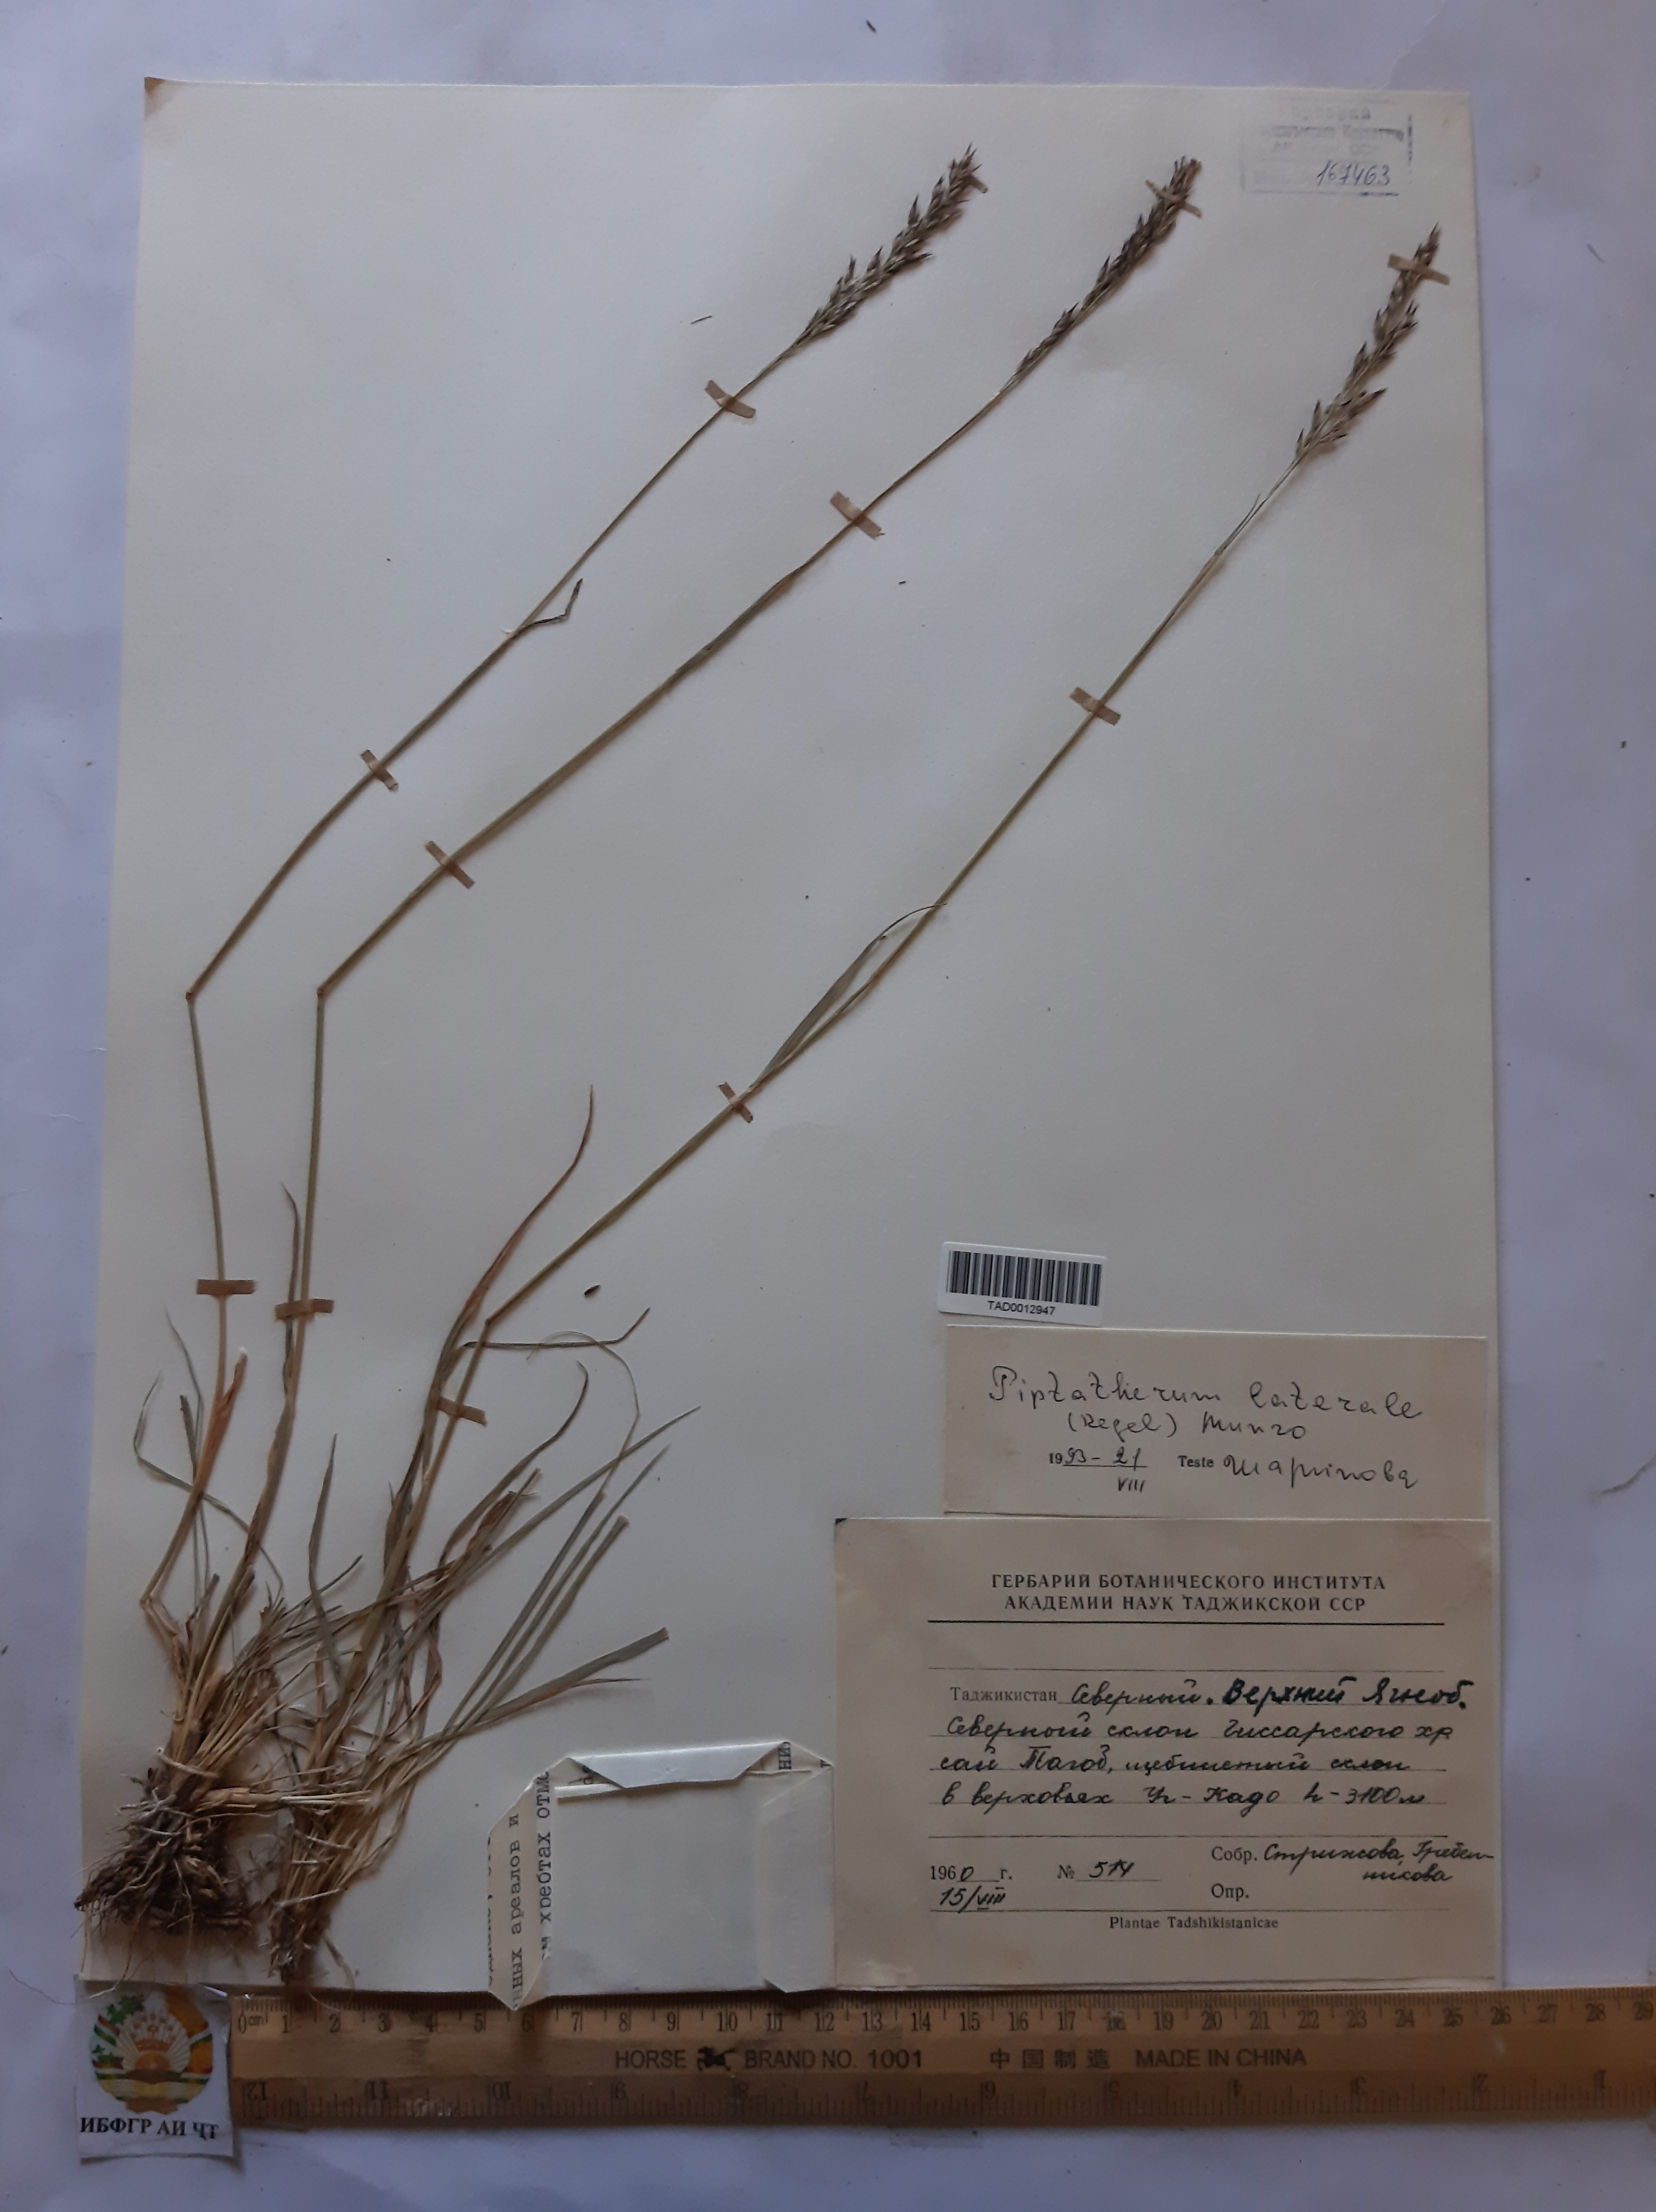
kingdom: Plantae
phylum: Tracheophyta
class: Liliopsida
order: Poales
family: Poaceae
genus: Piptatherum
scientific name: Piptatherum laterale
